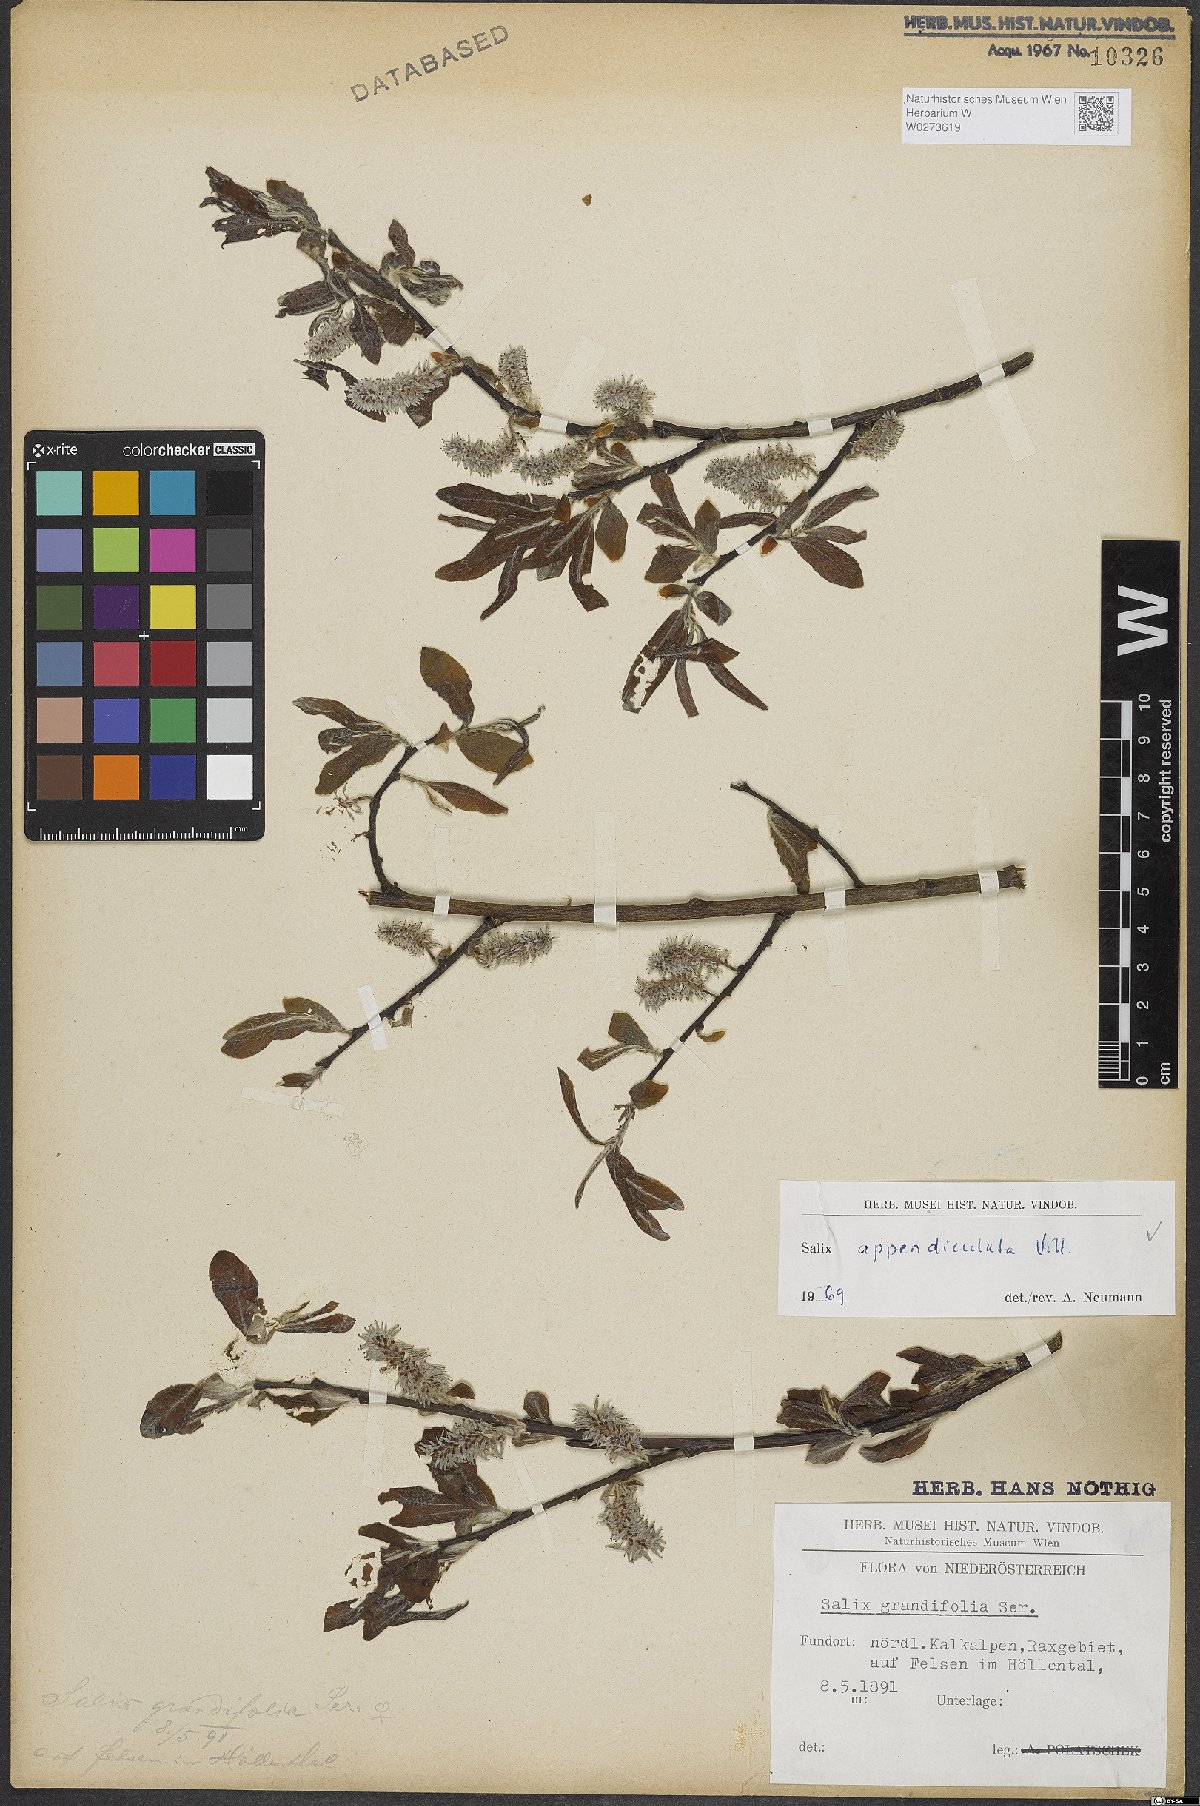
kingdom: Plantae
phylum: Tracheophyta
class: Magnoliopsida
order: Malpighiales
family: Salicaceae
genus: Salix
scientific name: Salix appendiculata
